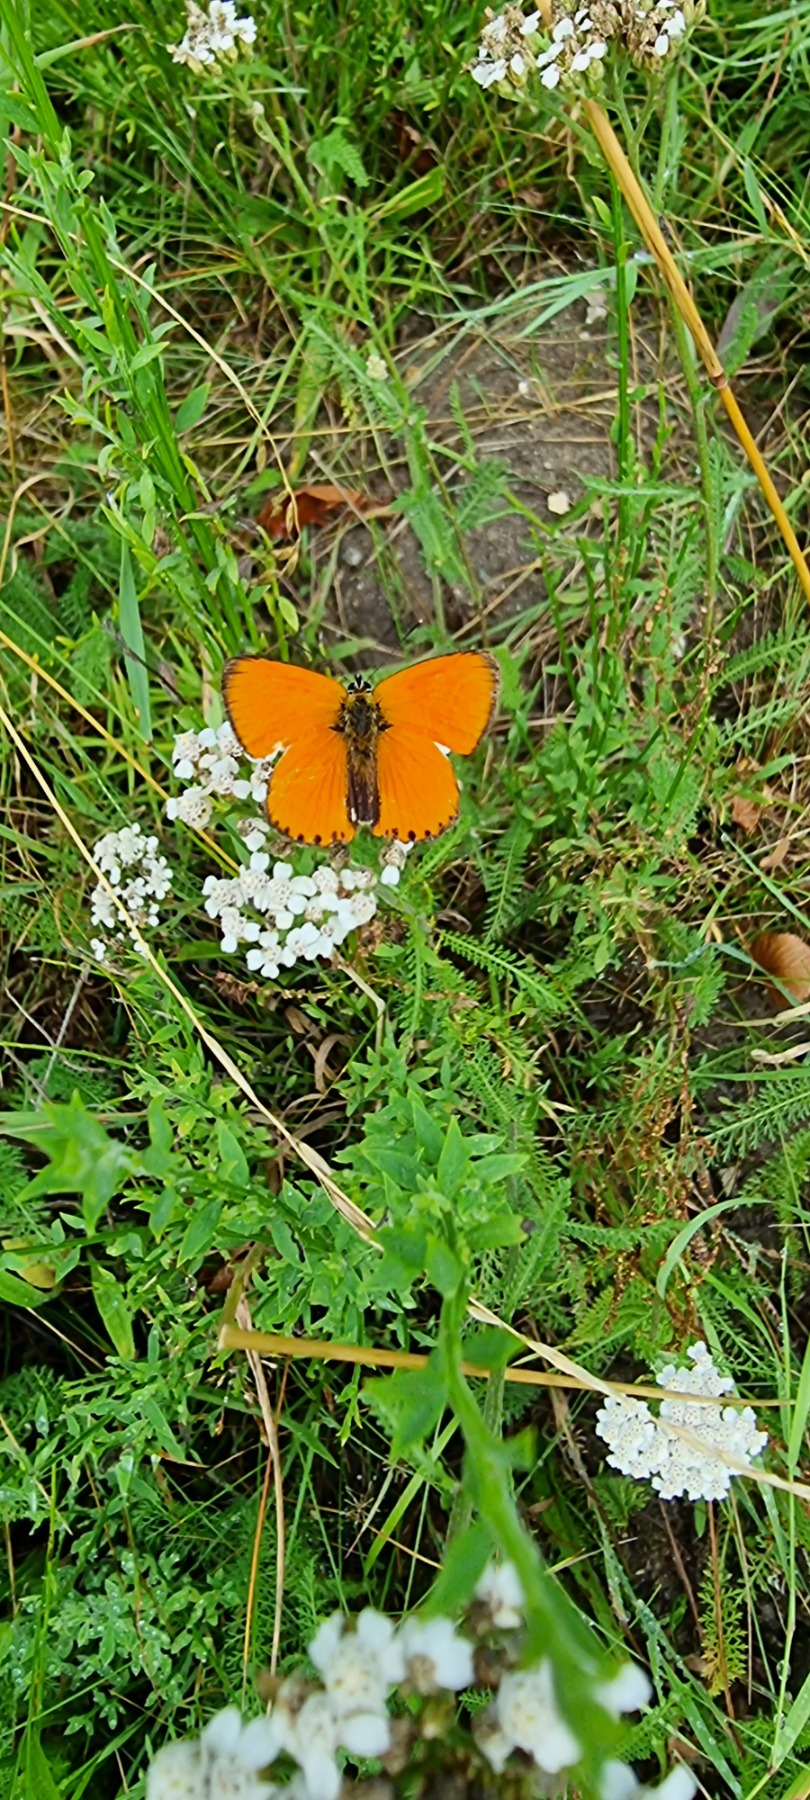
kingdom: Animalia
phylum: Arthropoda
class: Insecta
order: Lepidoptera
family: Lycaenidae
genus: Lycaena
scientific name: Lycaena virgaureae
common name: Dukatsommerfugl
